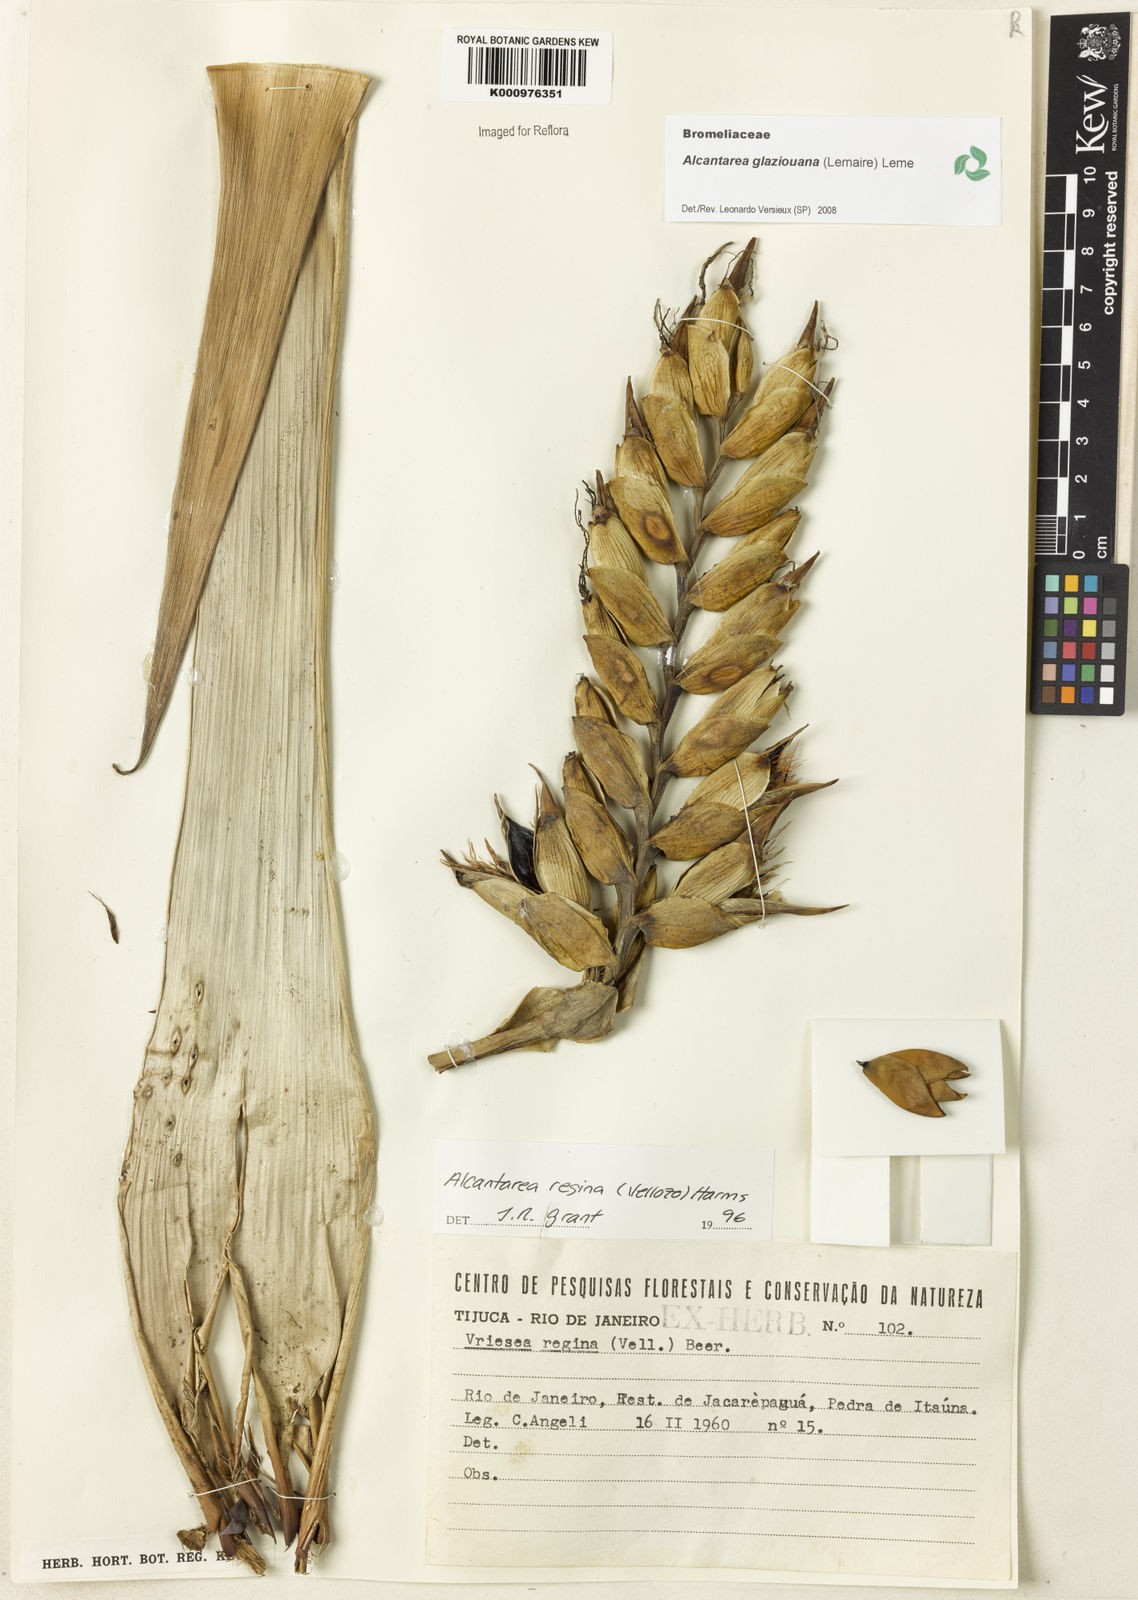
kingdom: Plantae
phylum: Tracheophyta
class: Liliopsida
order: Poales
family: Bromeliaceae
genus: Vriesea
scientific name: Vriesea
